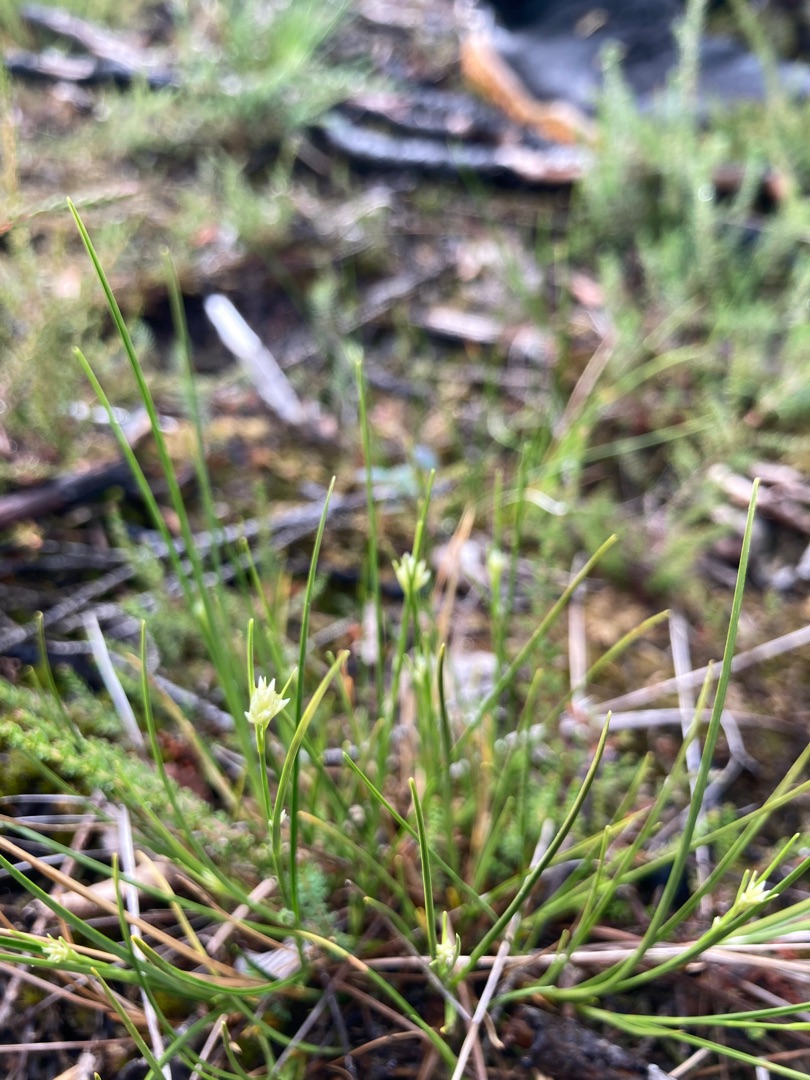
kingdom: Plantae
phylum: Tracheophyta
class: Liliopsida
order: Poales
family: Cyperaceae
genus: Rhynchospora
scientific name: Rhynchospora alba
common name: Hvid næbfrø
